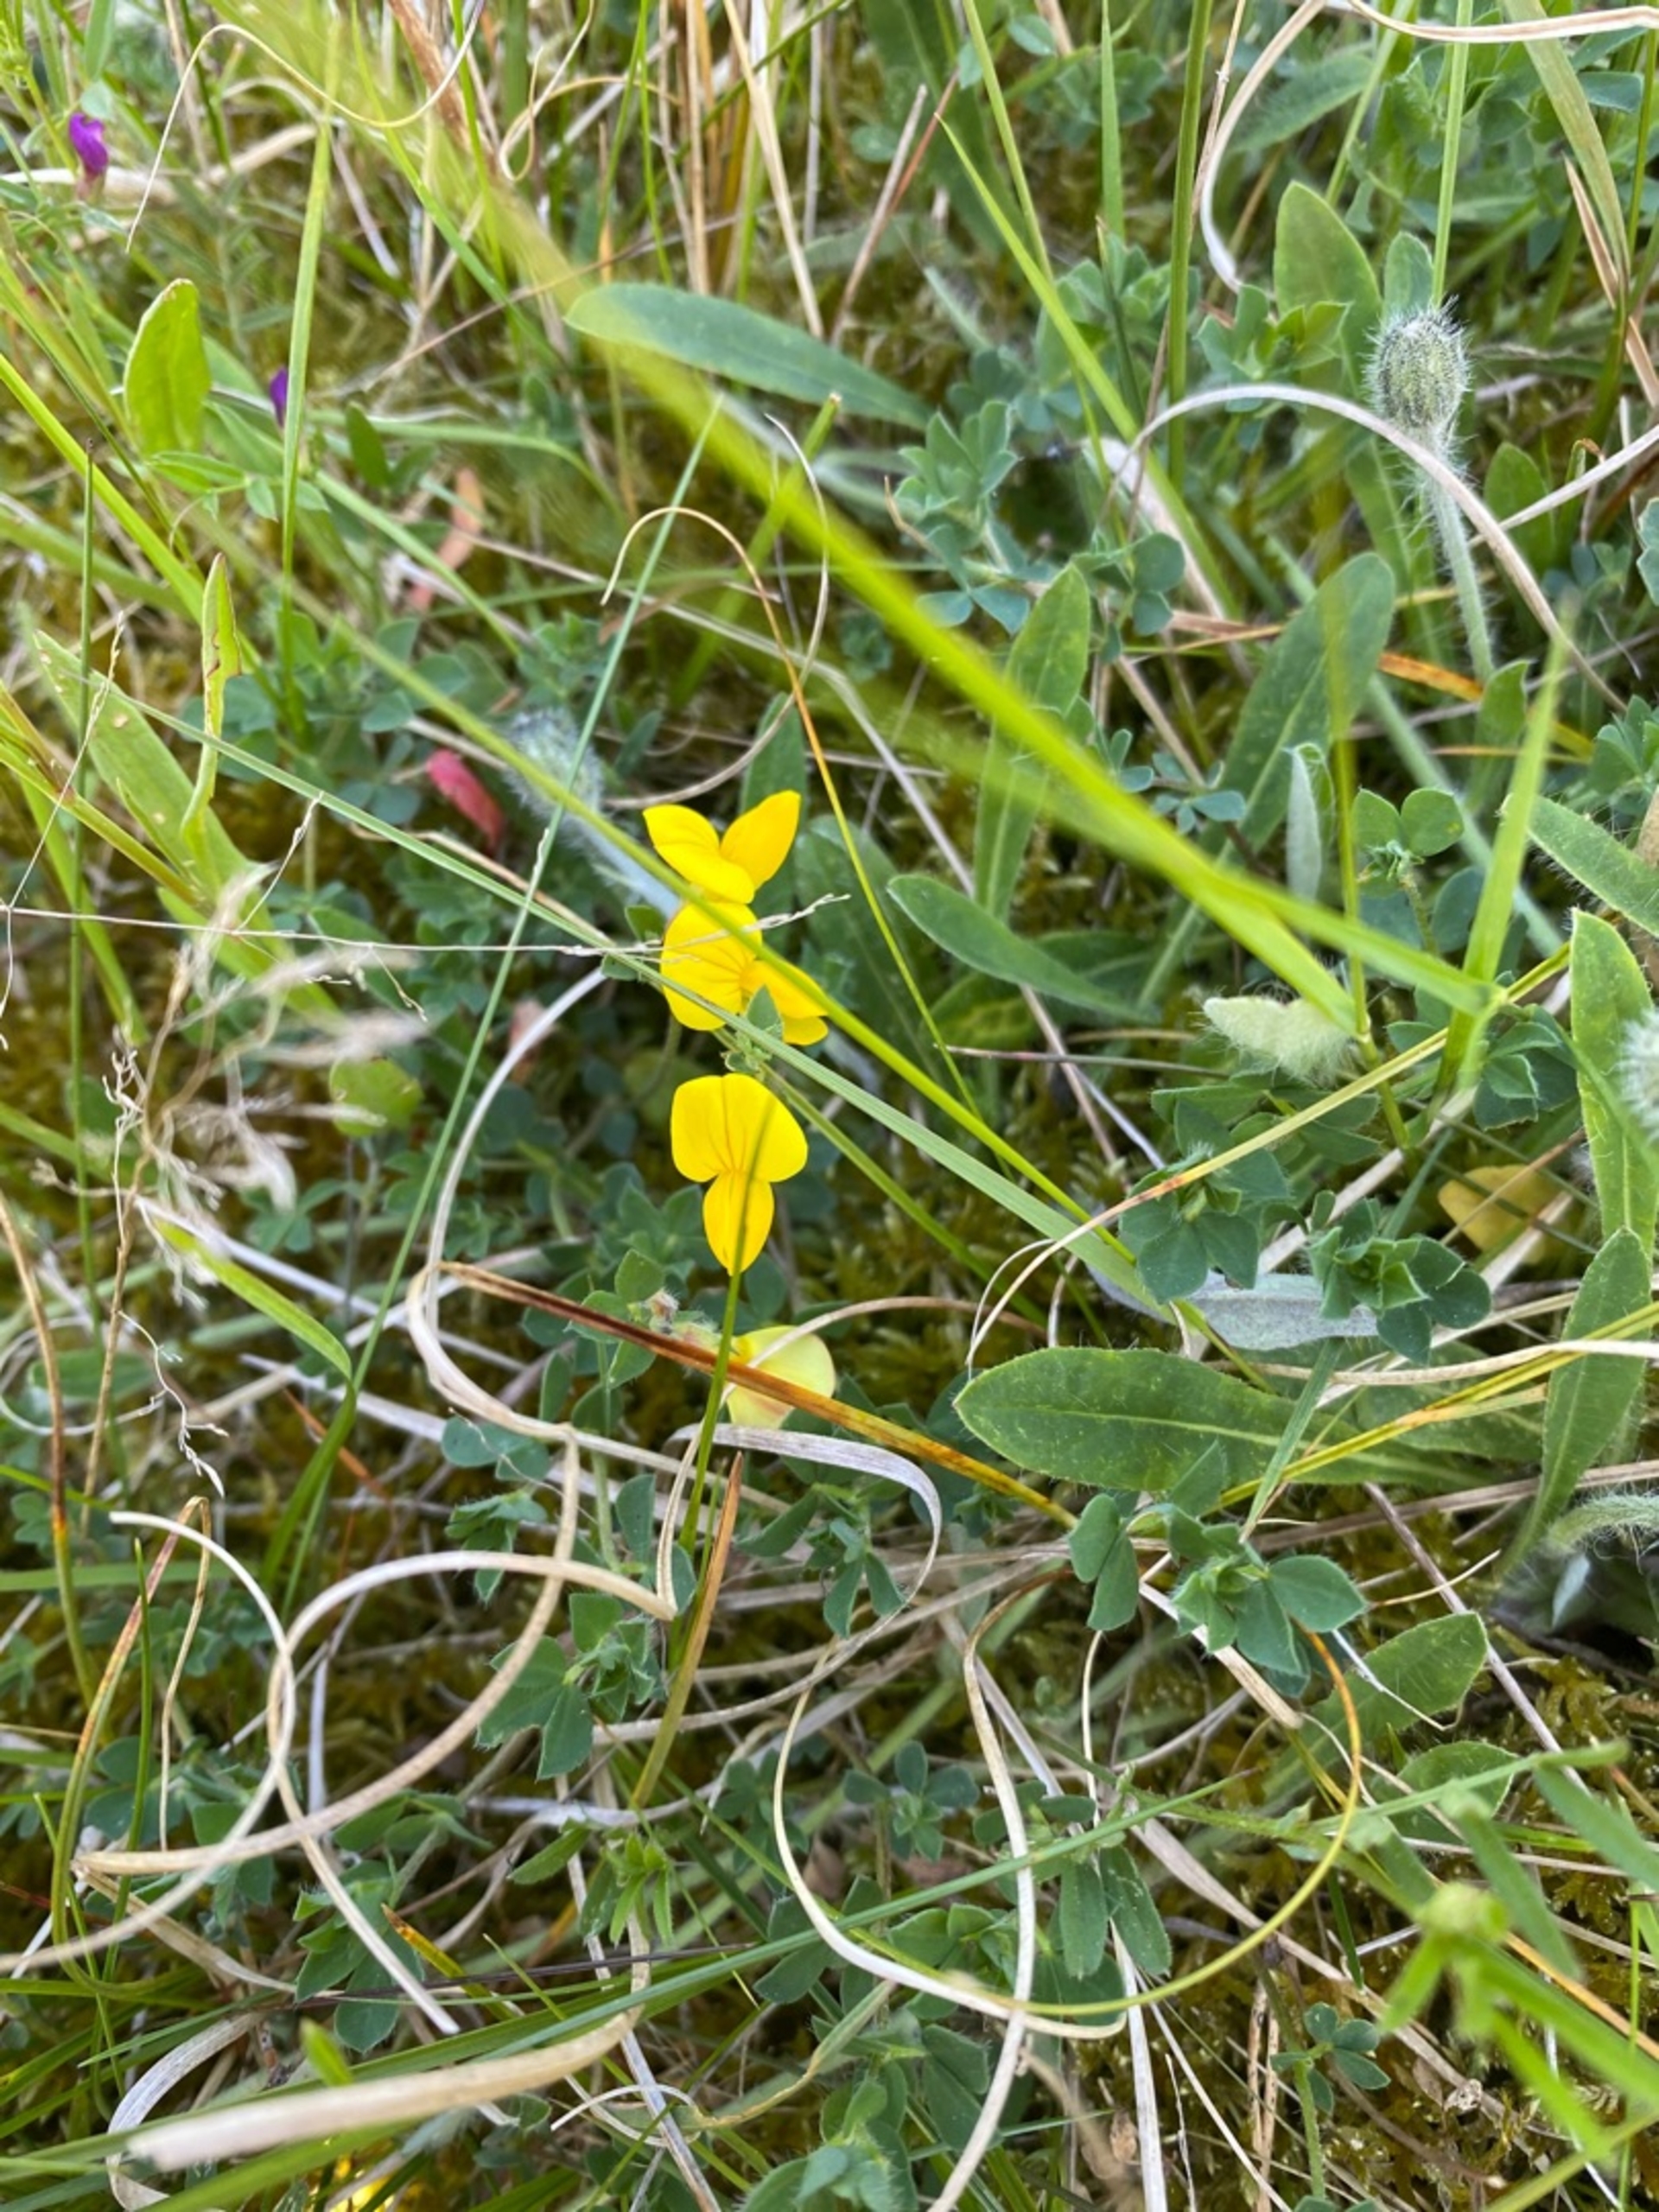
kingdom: Plantae
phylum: Tracheophyta
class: Magnoliopsida
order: Fabales
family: Fabaceae
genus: Lotus
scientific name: Lotus corniculatus
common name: Almindelig kællingetand
